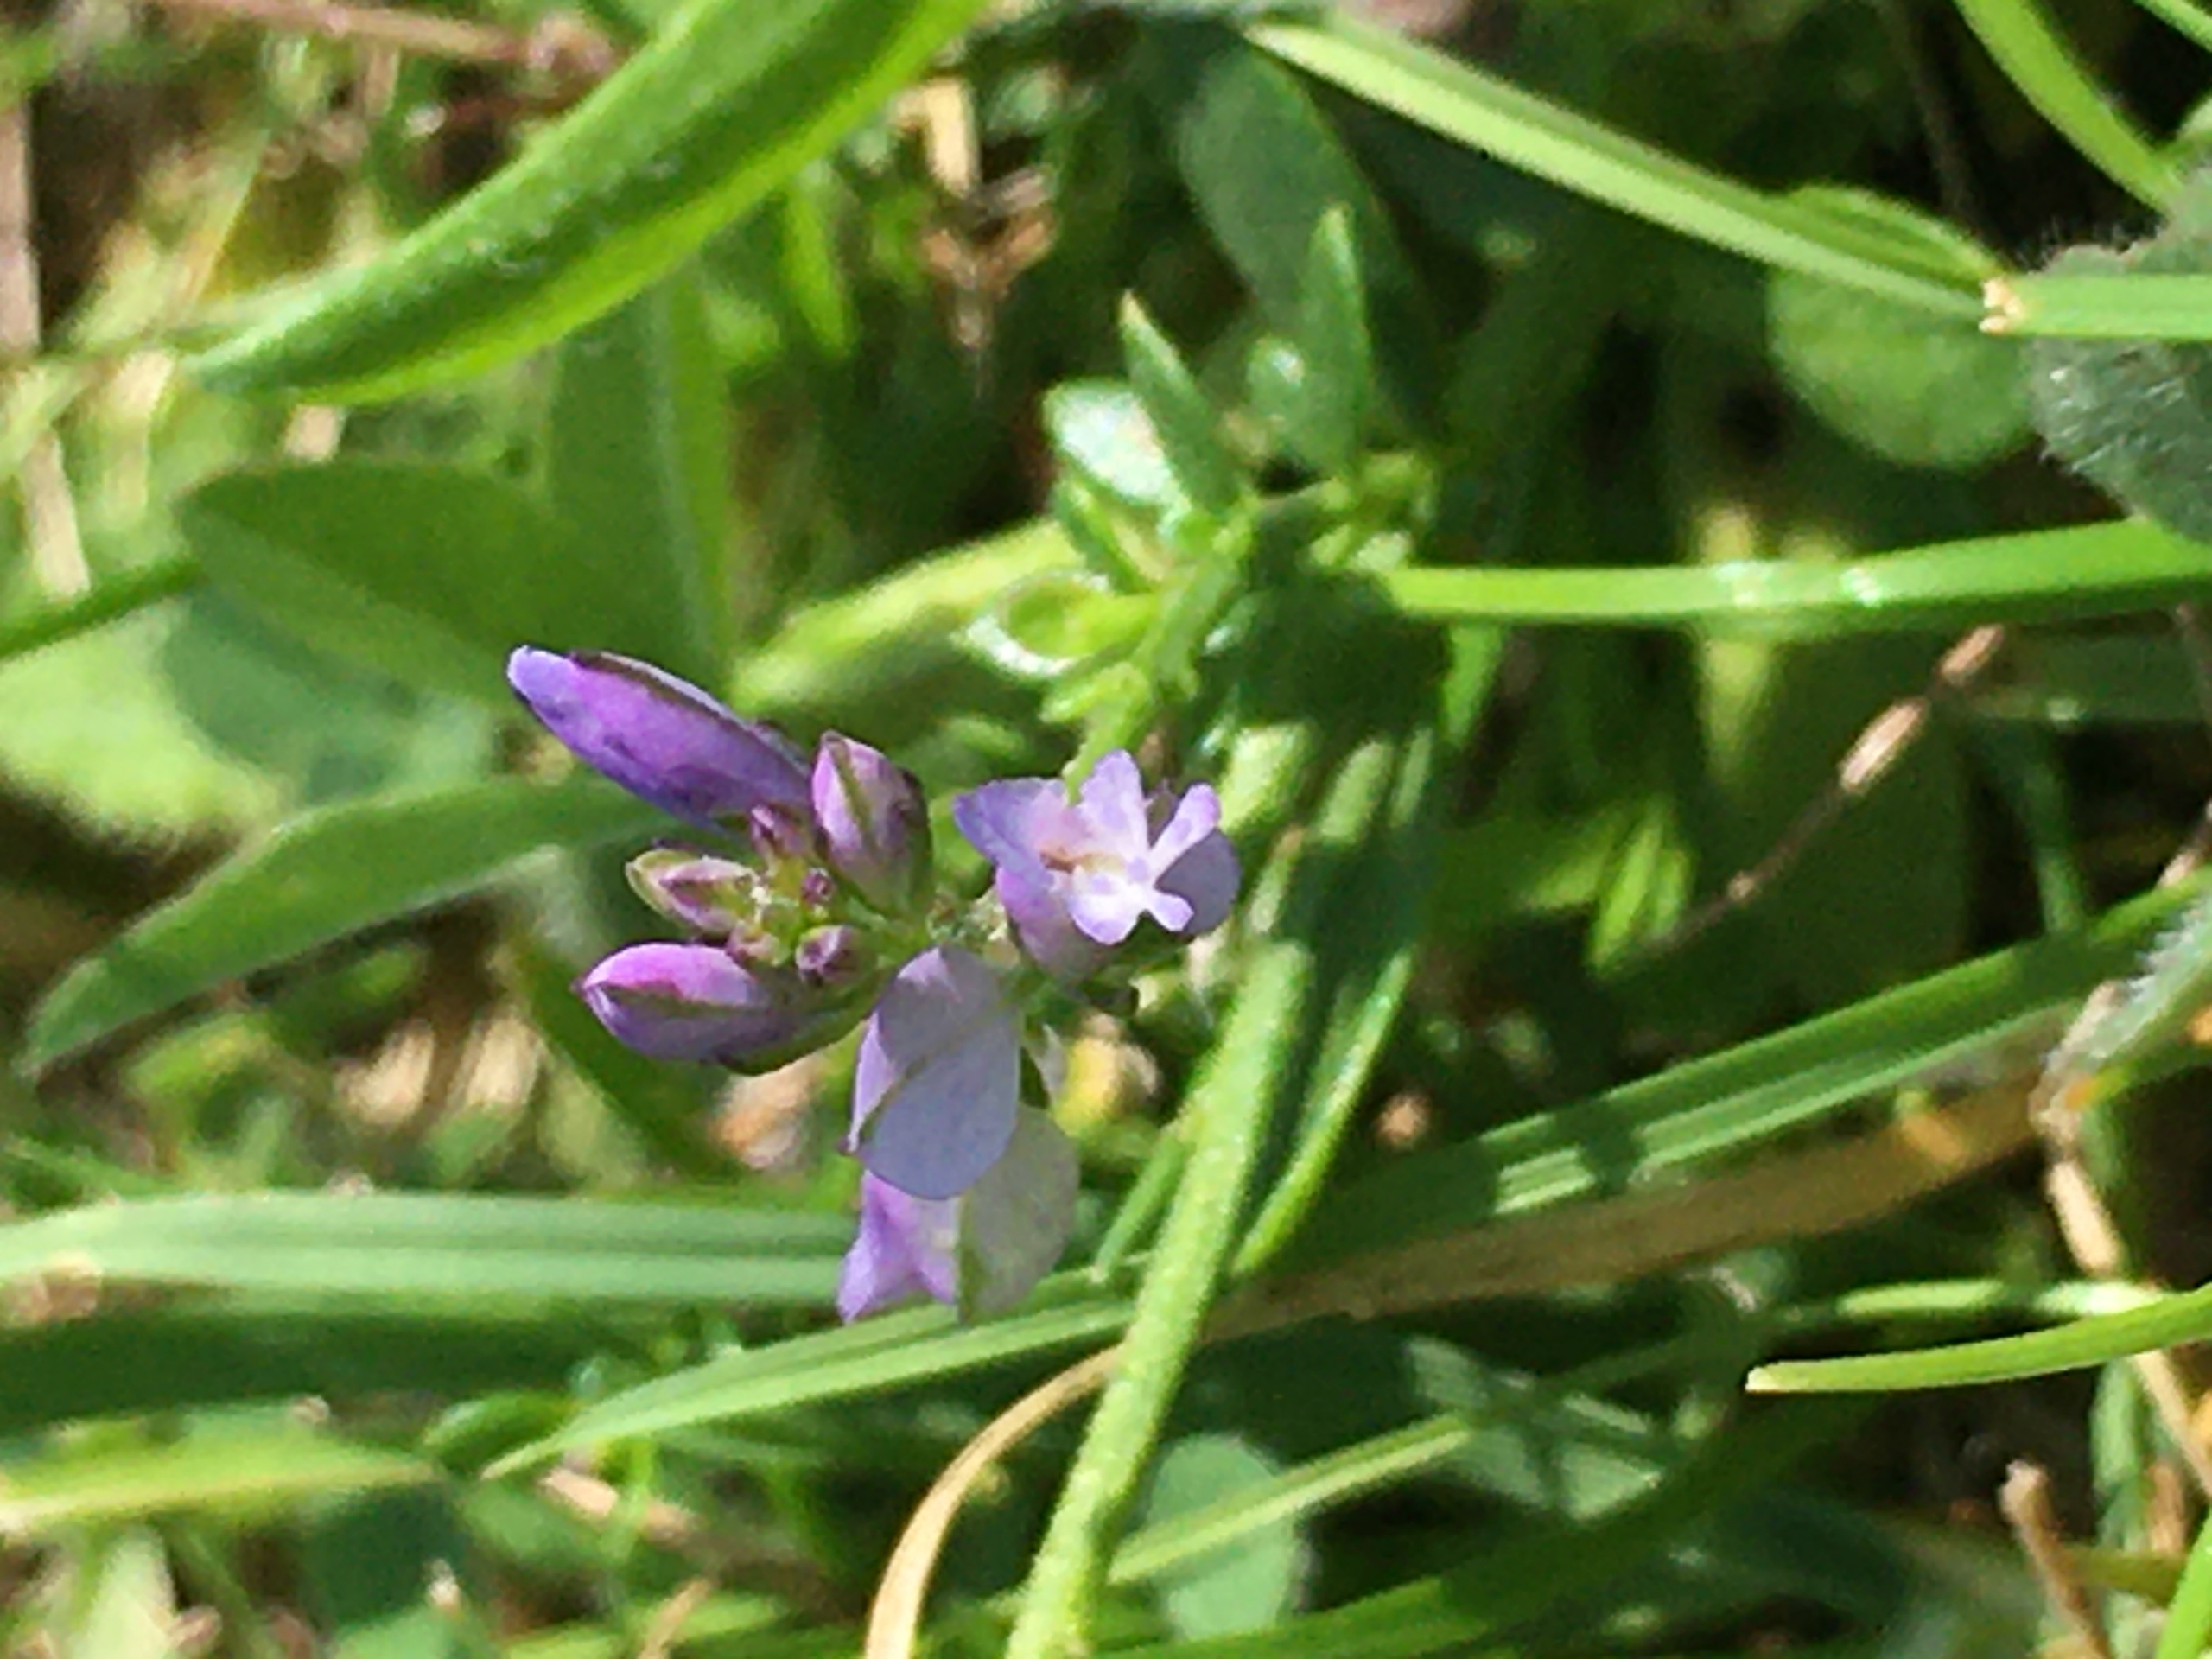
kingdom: Plantae
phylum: Tracheophyta
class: Magnoliopsida
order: Fabales
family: Polygalaceae
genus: Polygala
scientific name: Polygala vulgaris
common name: Almindelig mælkeurt
